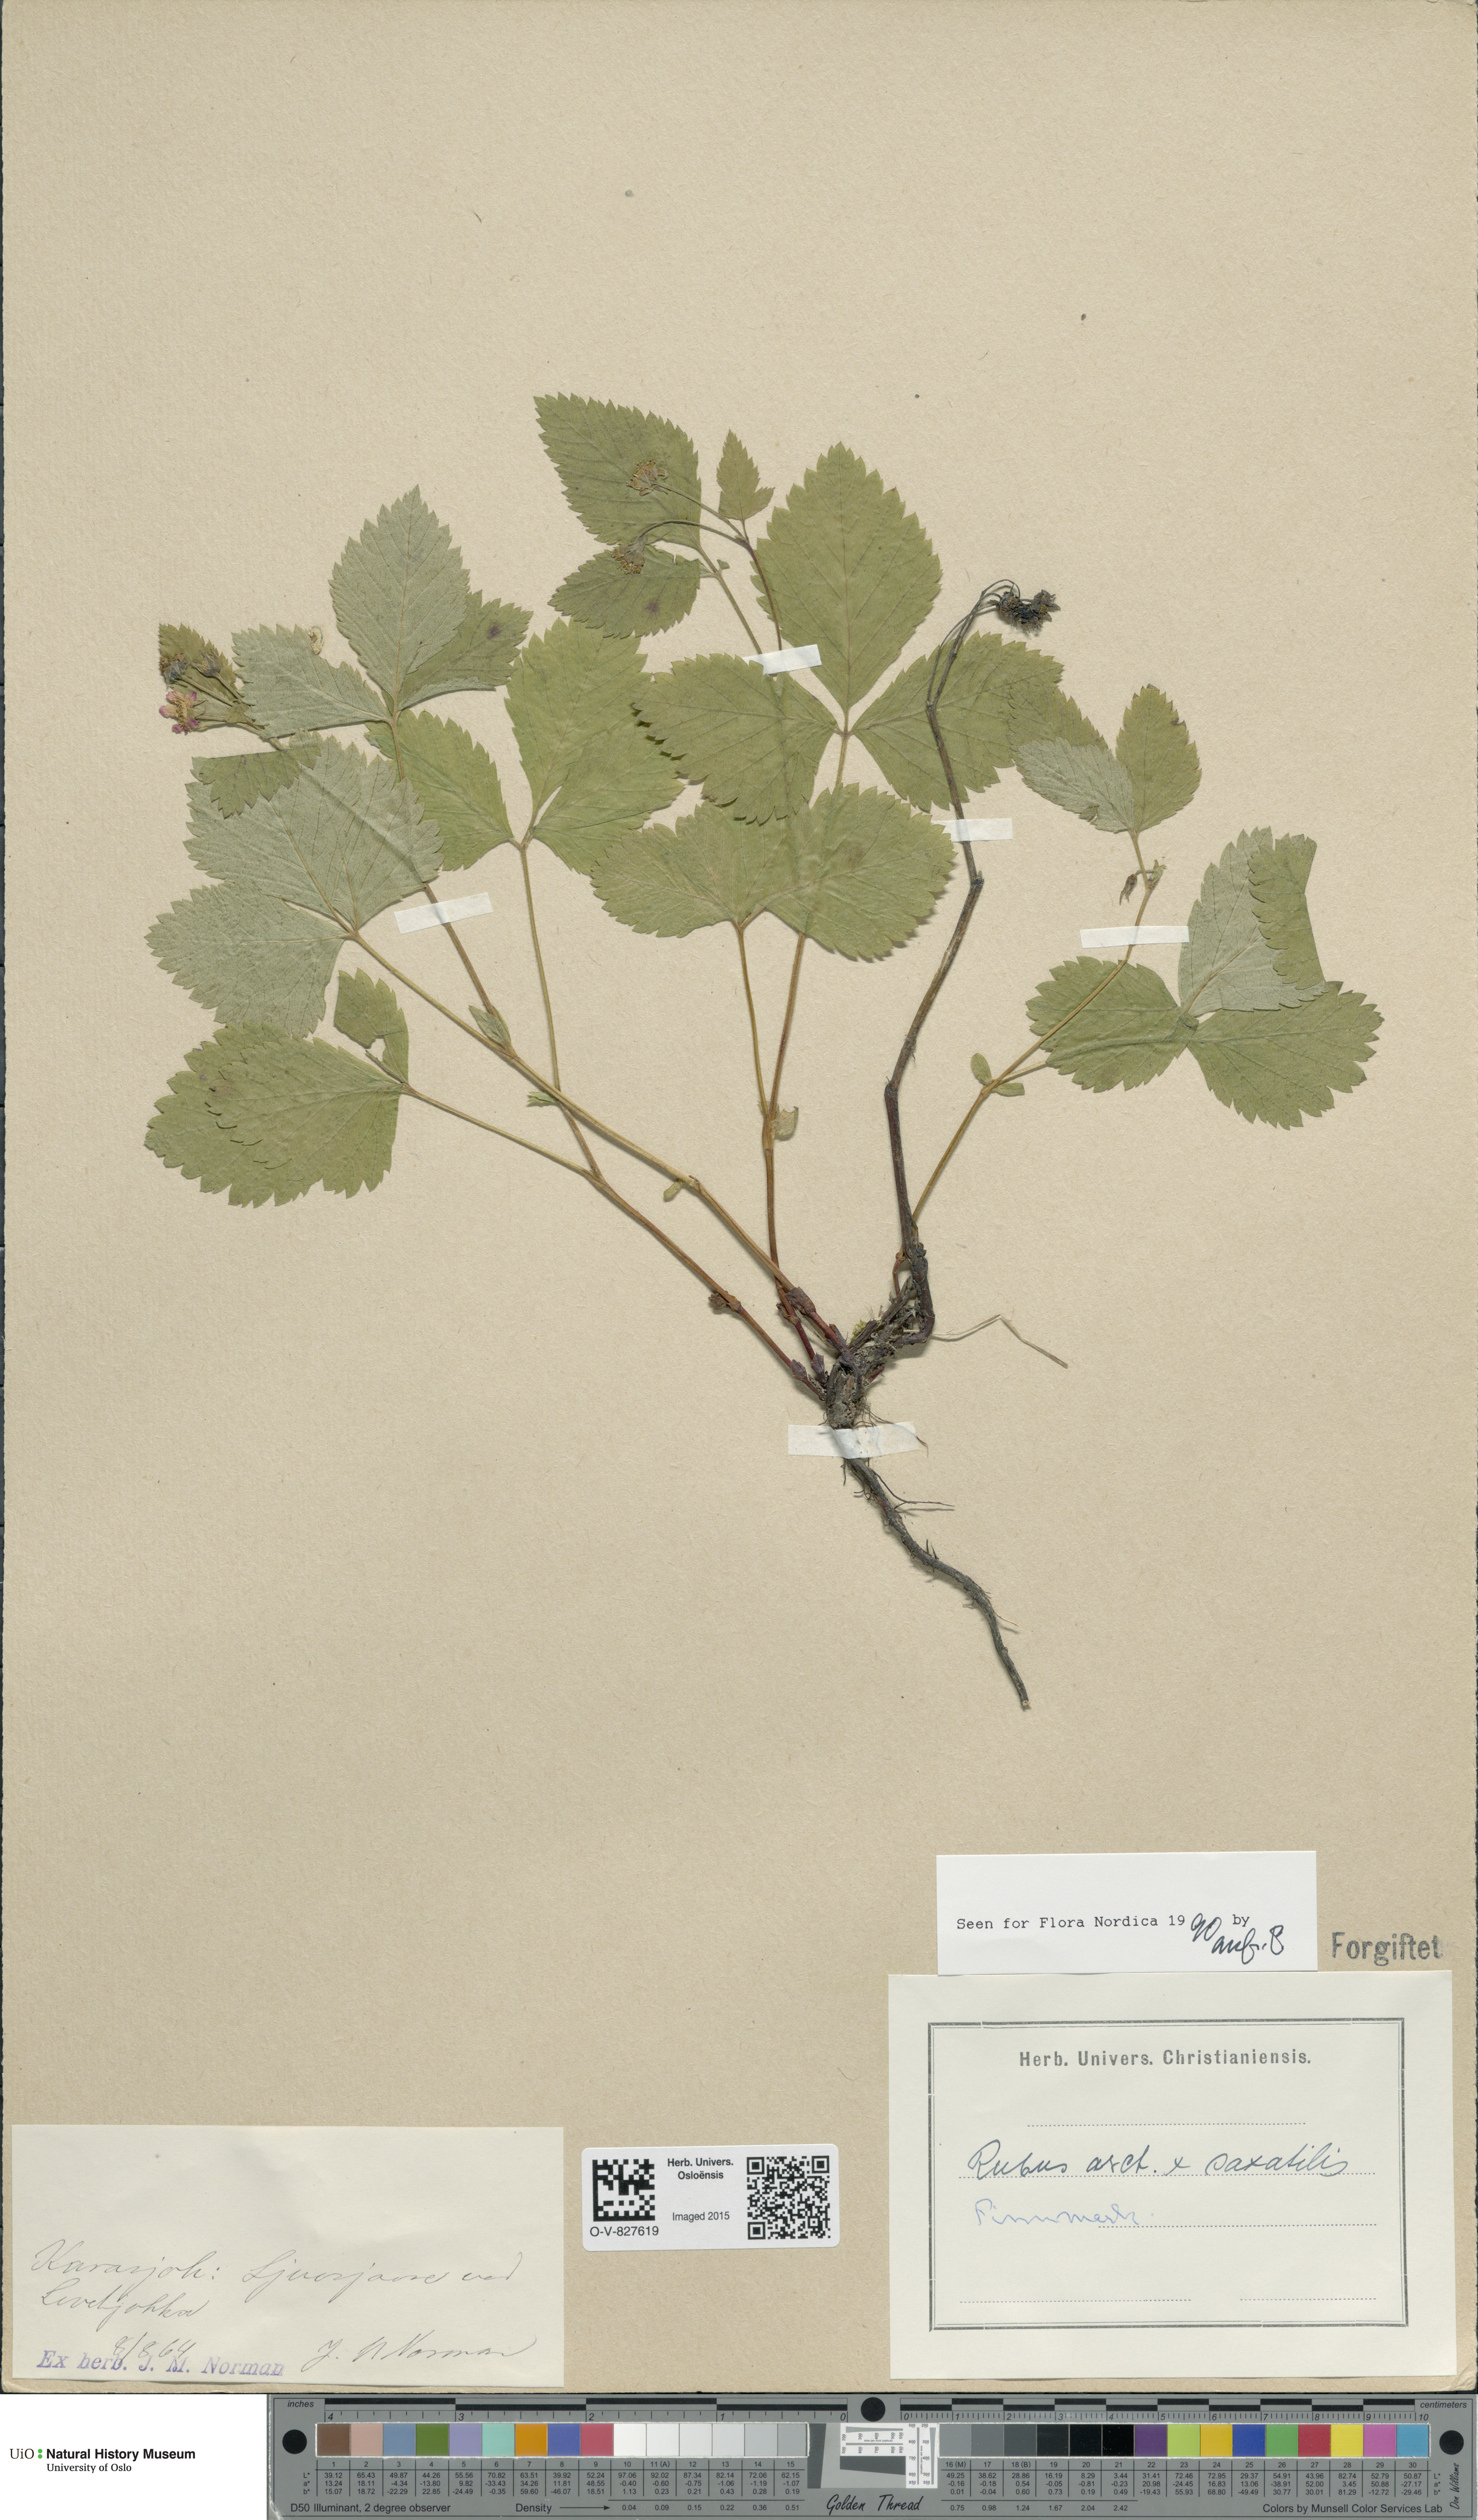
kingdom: Plantae
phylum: Tracheophyta
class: Magnoliopsida
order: Rosales
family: Rosaceae
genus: Rubus
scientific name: Rubus
